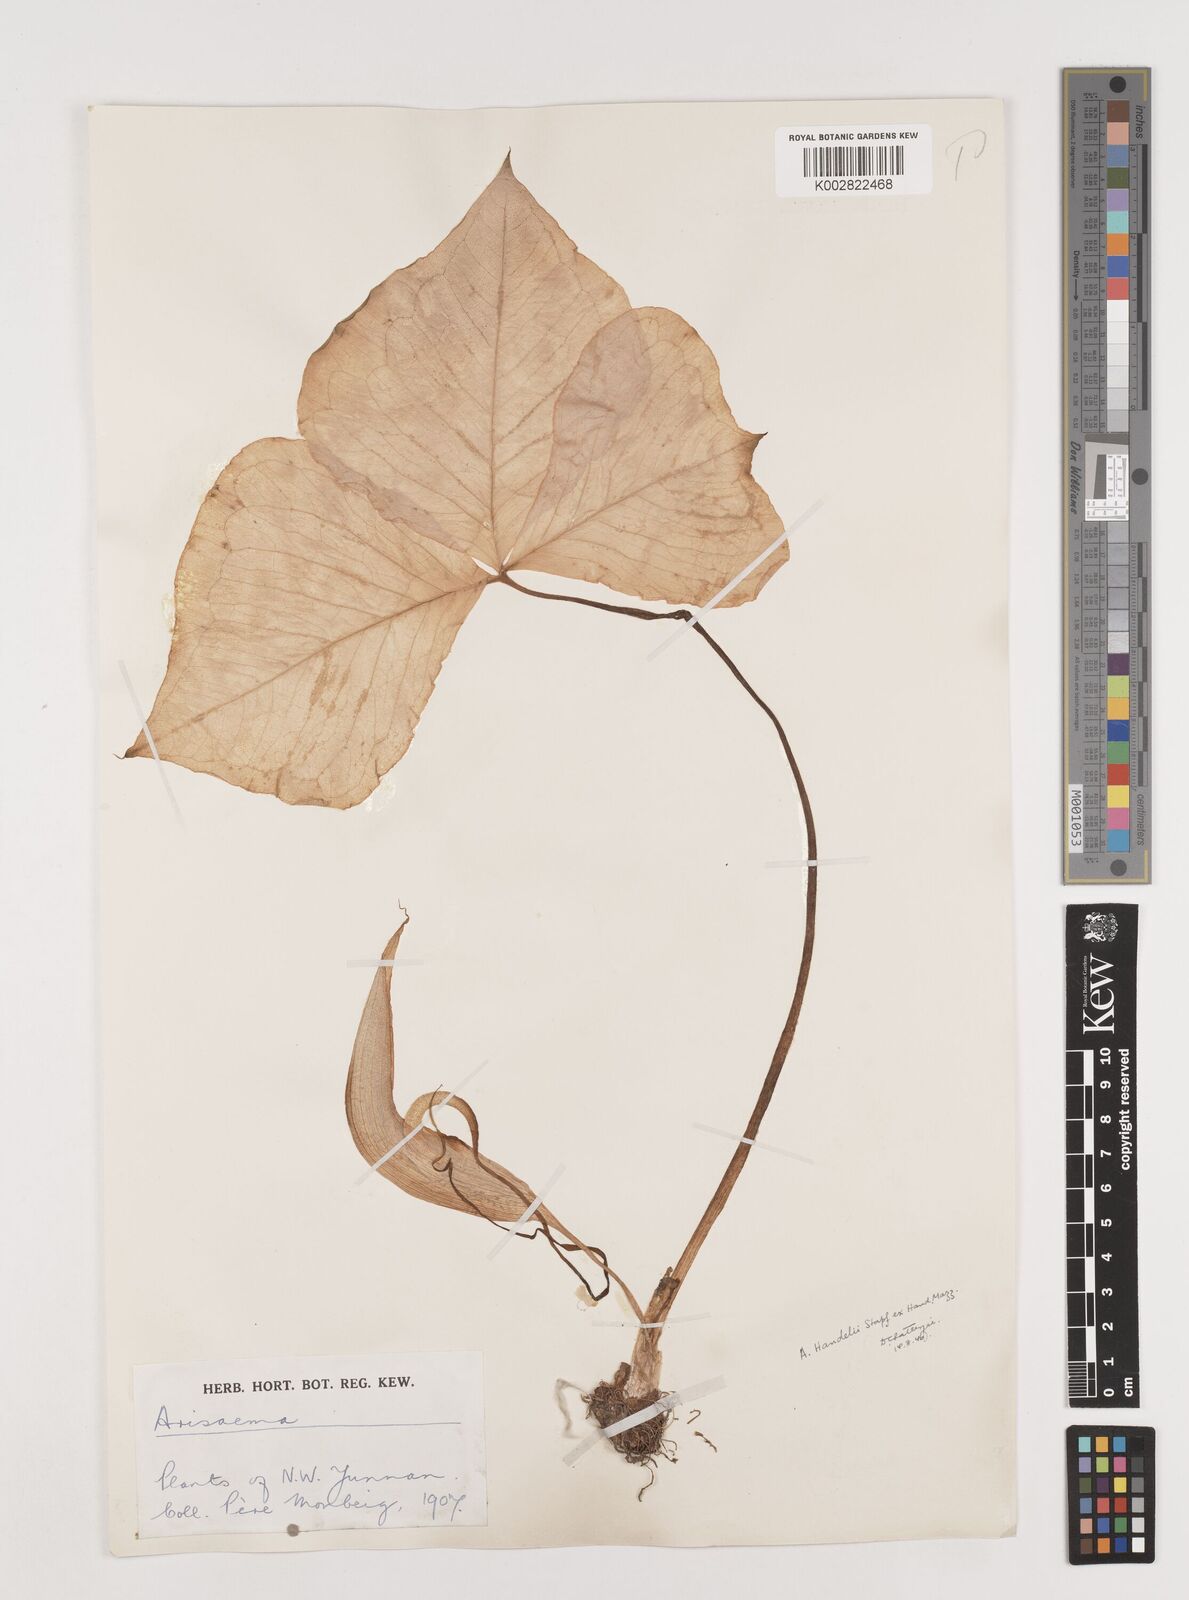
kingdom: Plantae
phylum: Tracheophyta
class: Liliopsida
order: Alismatales
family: Araceae
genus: Arisaema
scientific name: Arisaema handelii
